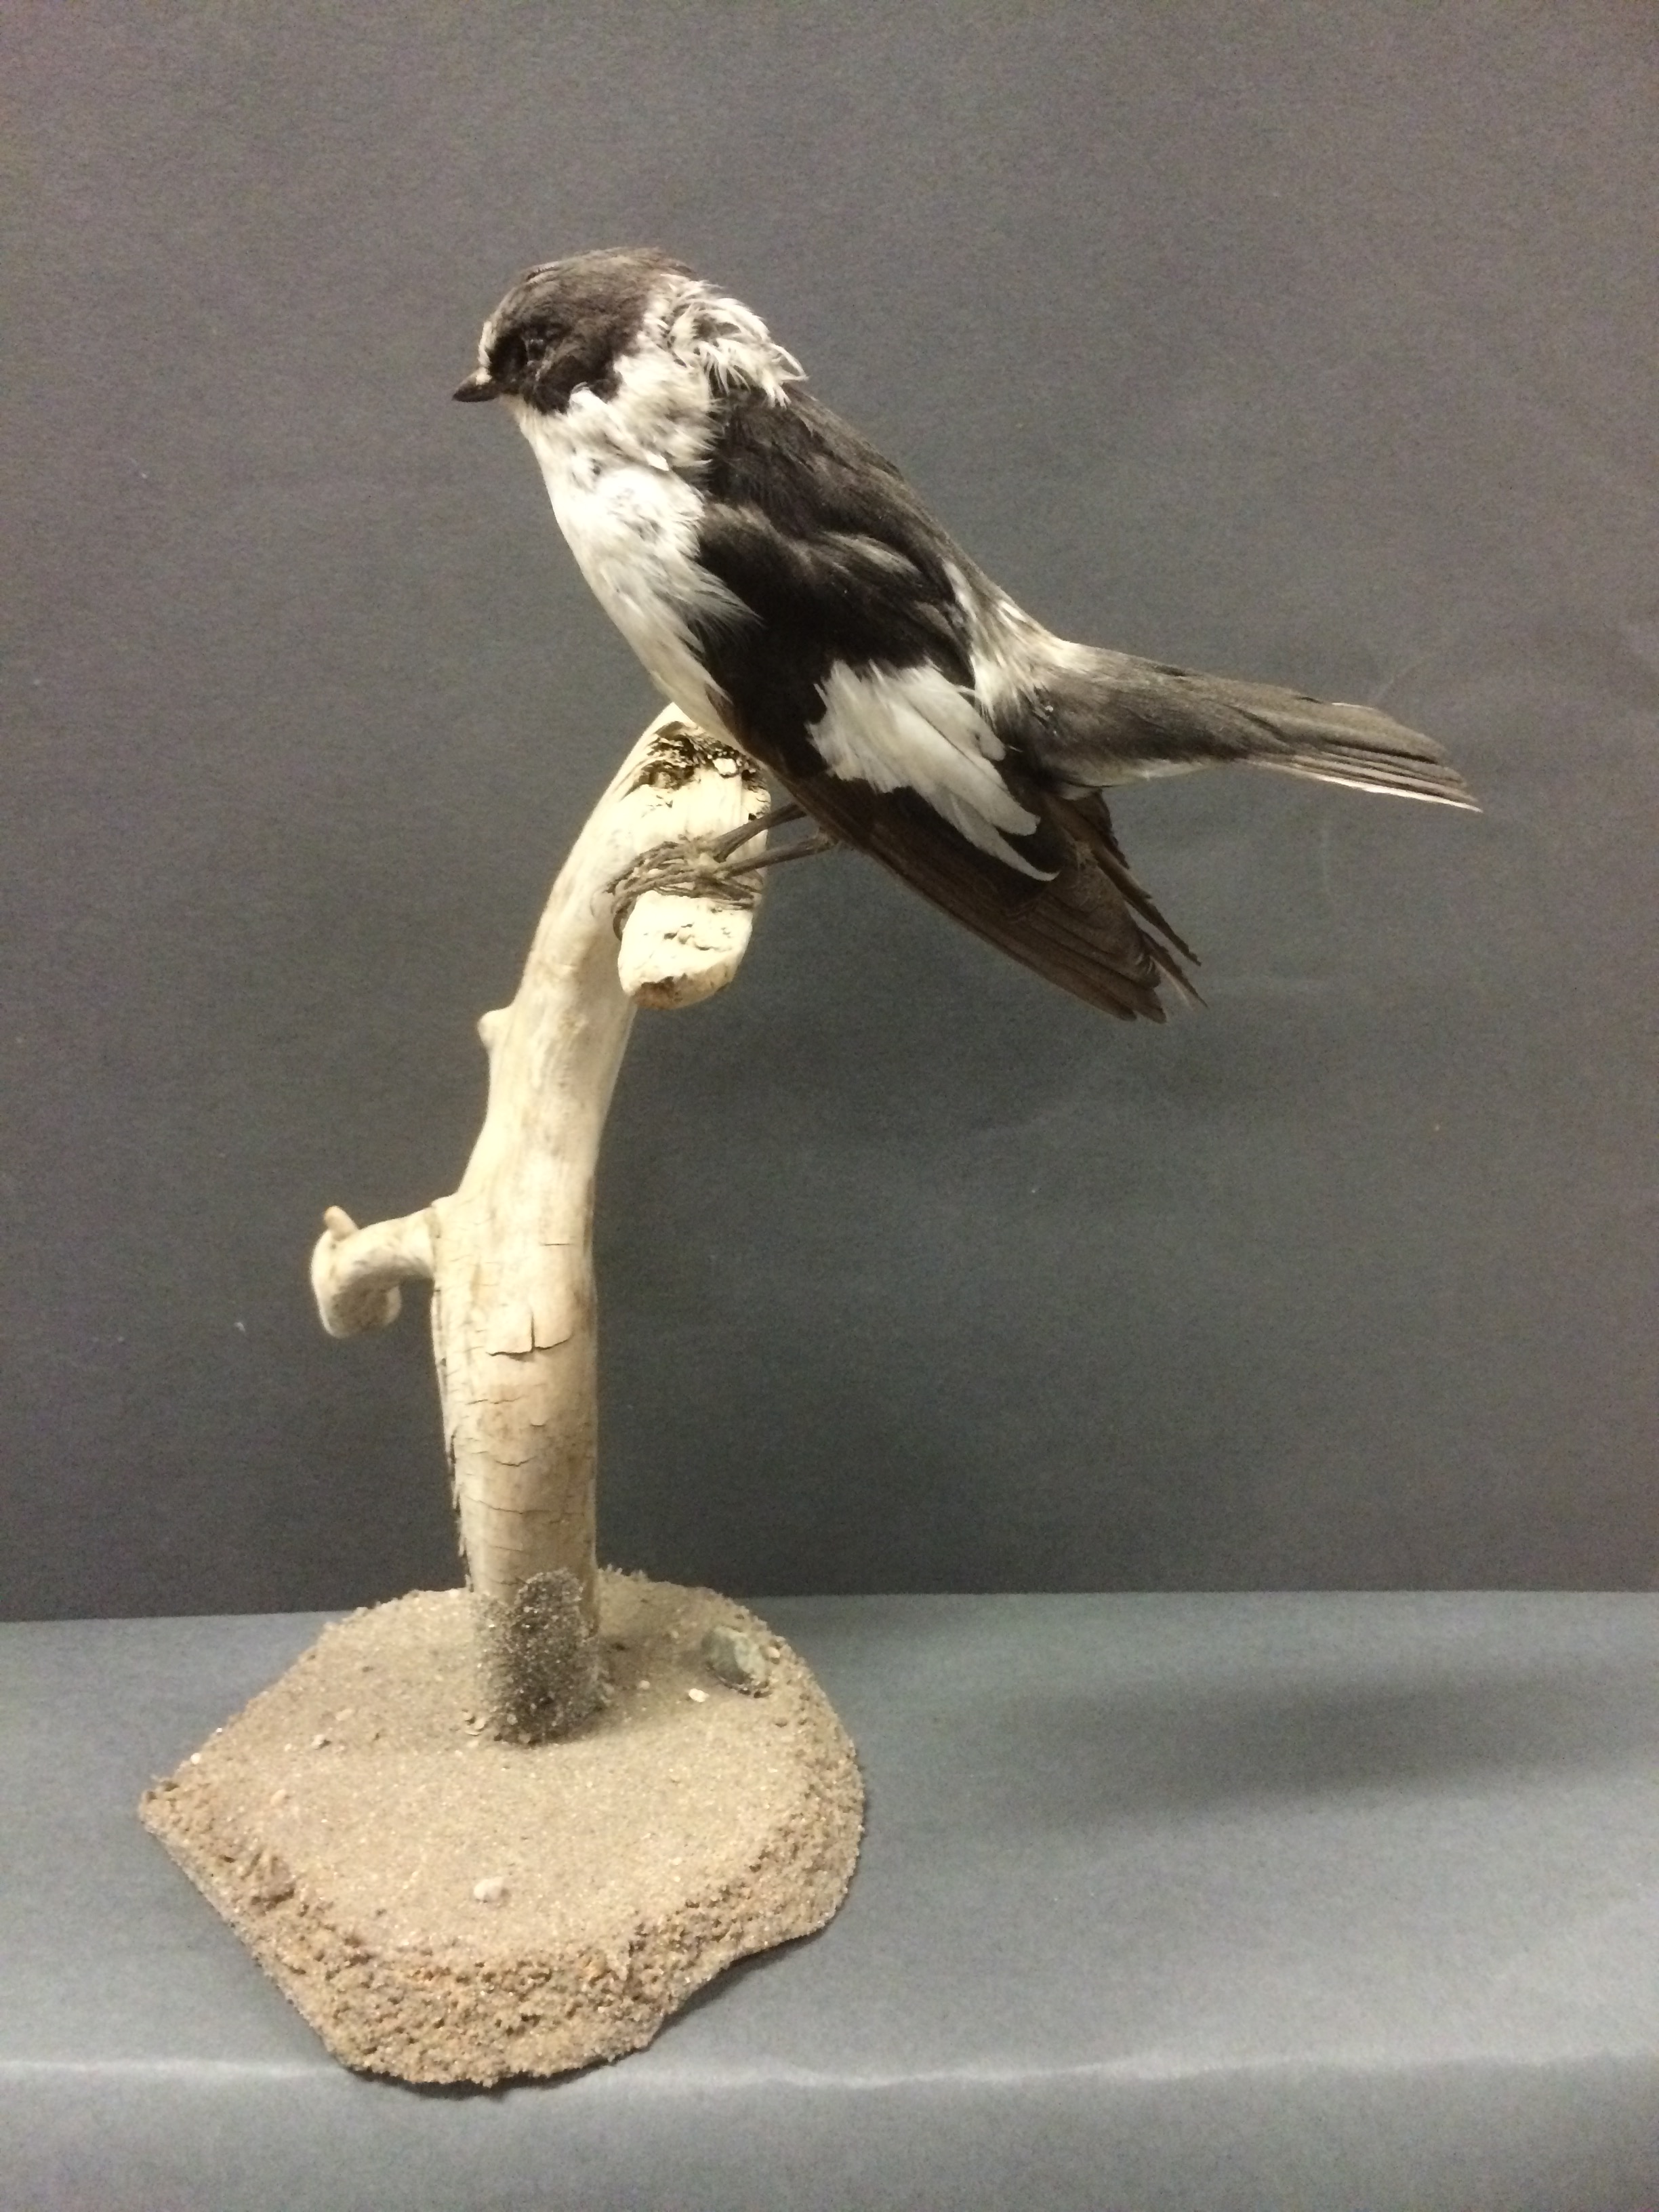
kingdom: Animalia
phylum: Chordata
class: Aves
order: Passeriformes
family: Muscicapidae
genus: Ficedula
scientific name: Ficedula albicollis
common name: Collared flycatcher
